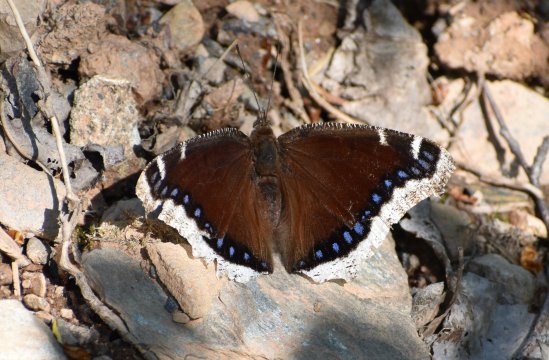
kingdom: Animalia
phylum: Arthropoda
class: Insecta
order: Lepidoptera
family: Nymphalidae
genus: Nymphalis
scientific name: Nymphalis antiopa
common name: Mourning Cloak
